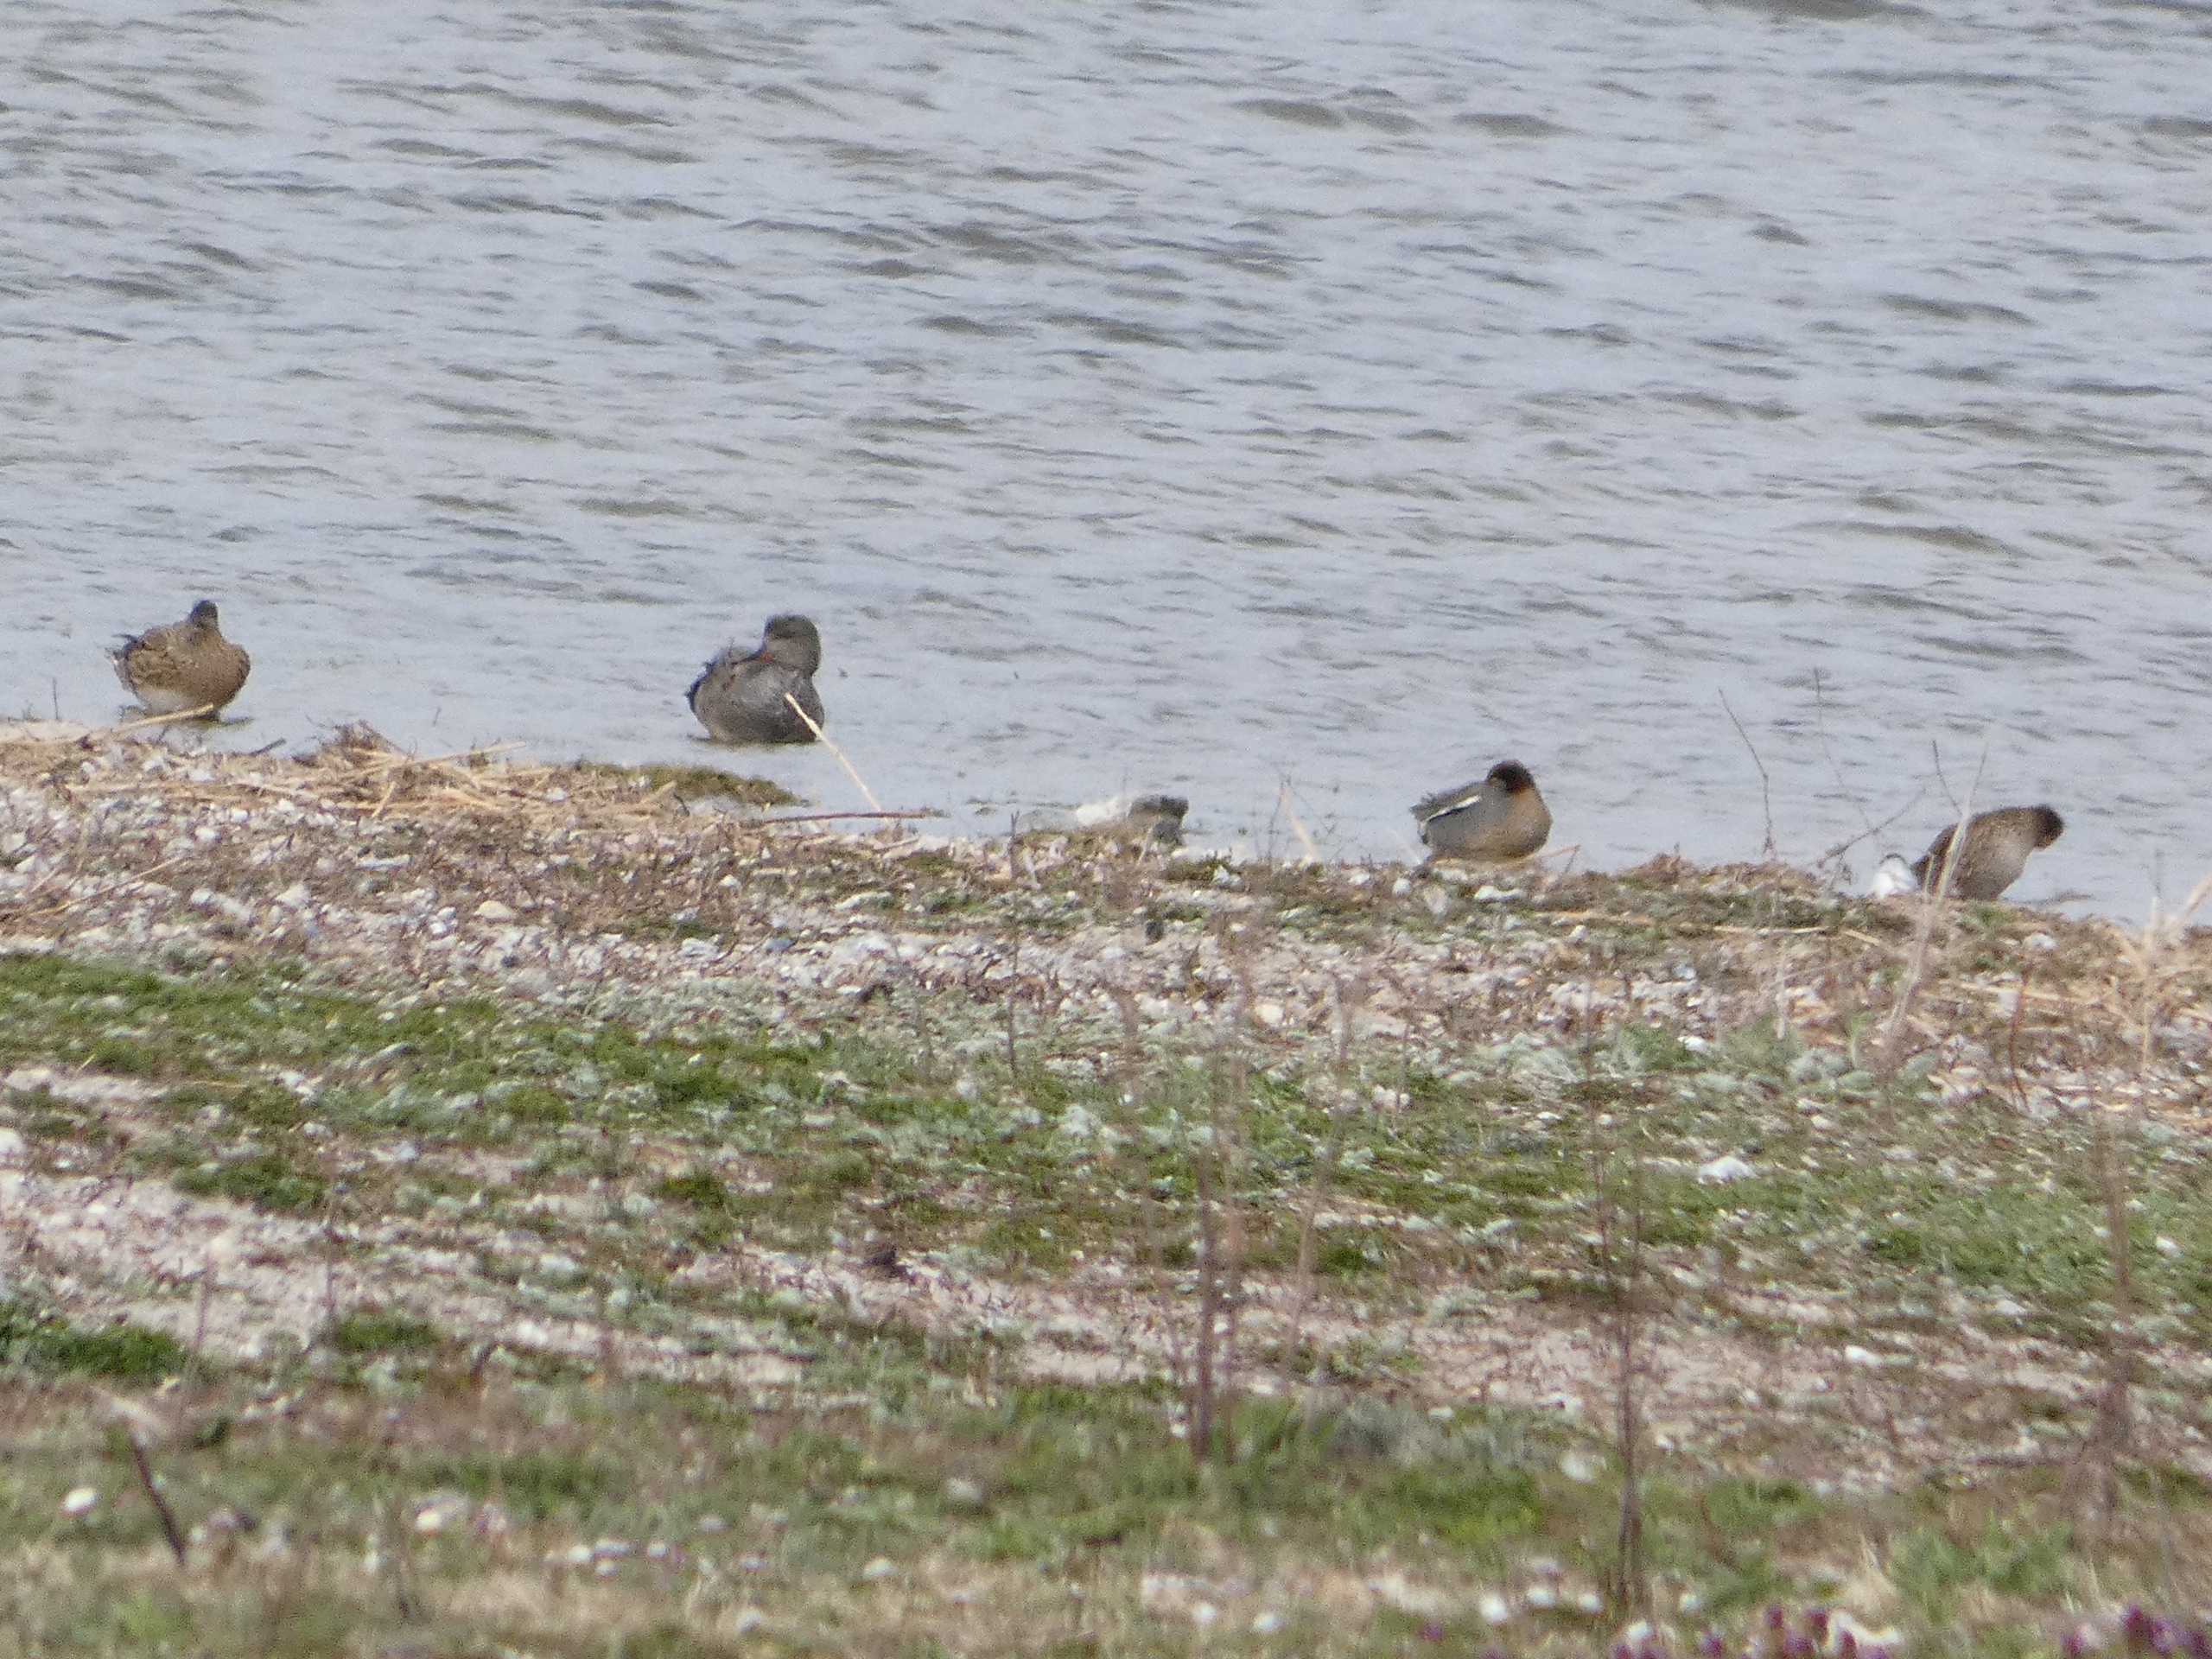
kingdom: Animalia
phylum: Chordata
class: Aves
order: Anseriformes
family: Anatidae
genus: Anas
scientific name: Anas crecca
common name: Krikand
